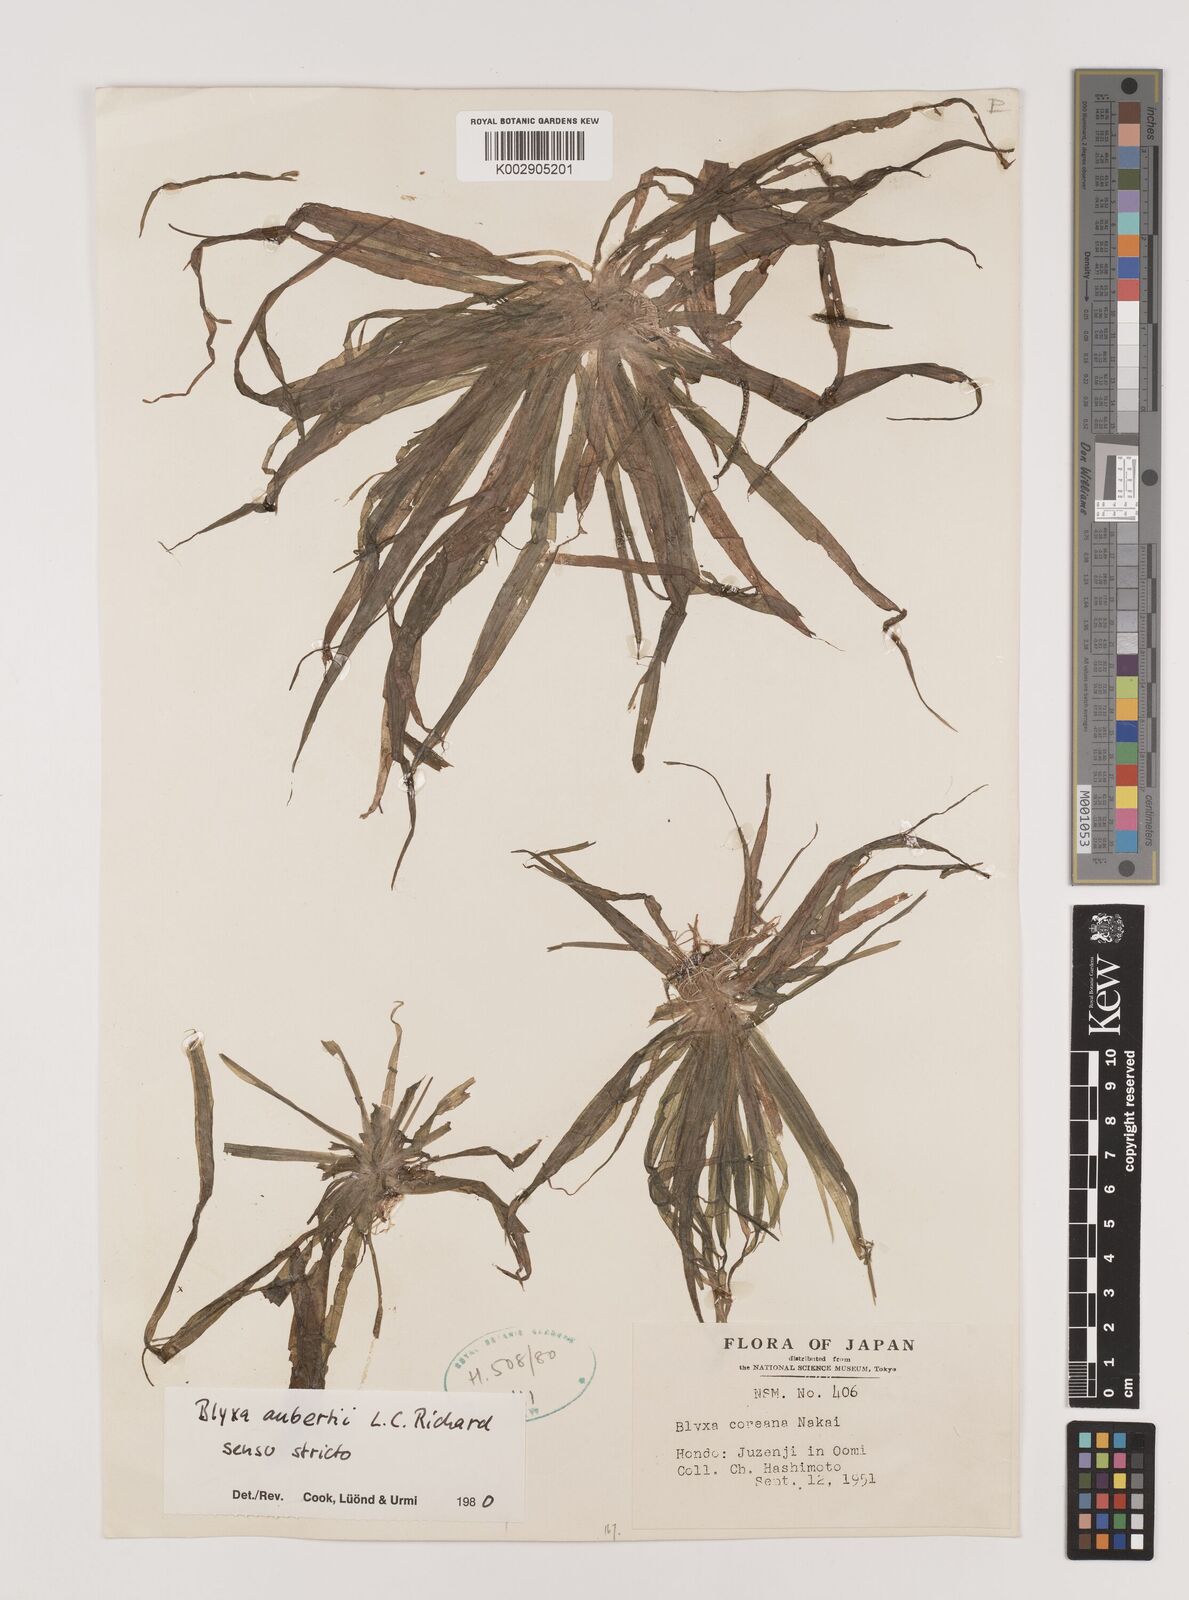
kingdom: Plantae
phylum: Tracheophyta
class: Liliopsida
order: Alismatales
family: Hydrocharitaceae
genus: Blyxa
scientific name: Blyxa aubertii
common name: Roundfruit blyxa
